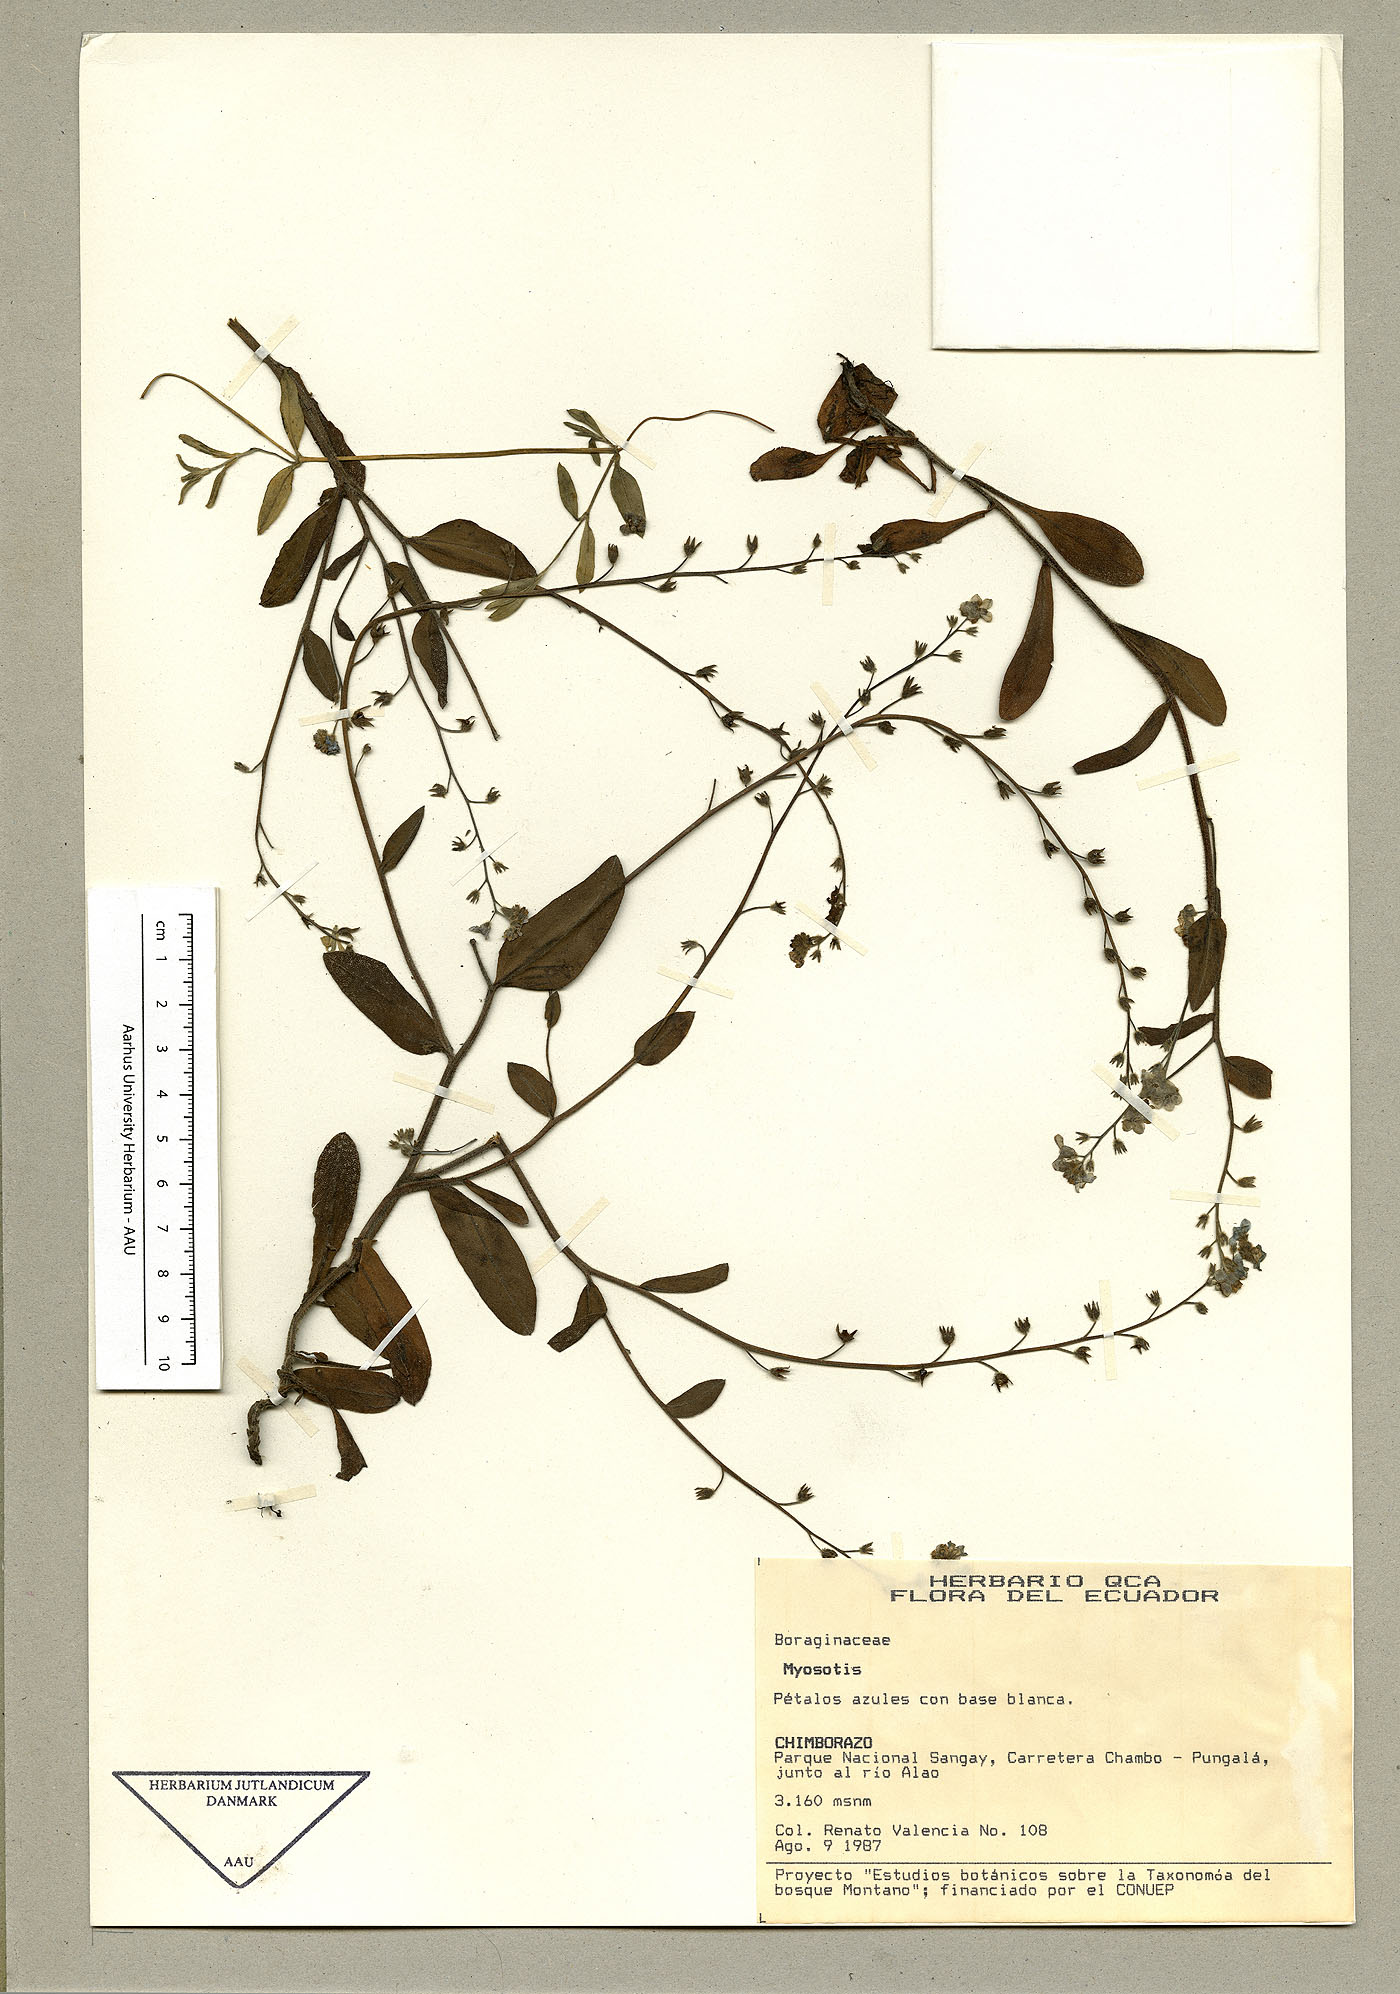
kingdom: Plantae
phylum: Tracheophyta
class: Magnoliopsida
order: Boraginales
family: Boraginaceae
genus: Myosotis
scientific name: Myosotis latifolia
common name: Broadleaf forget-me-not
